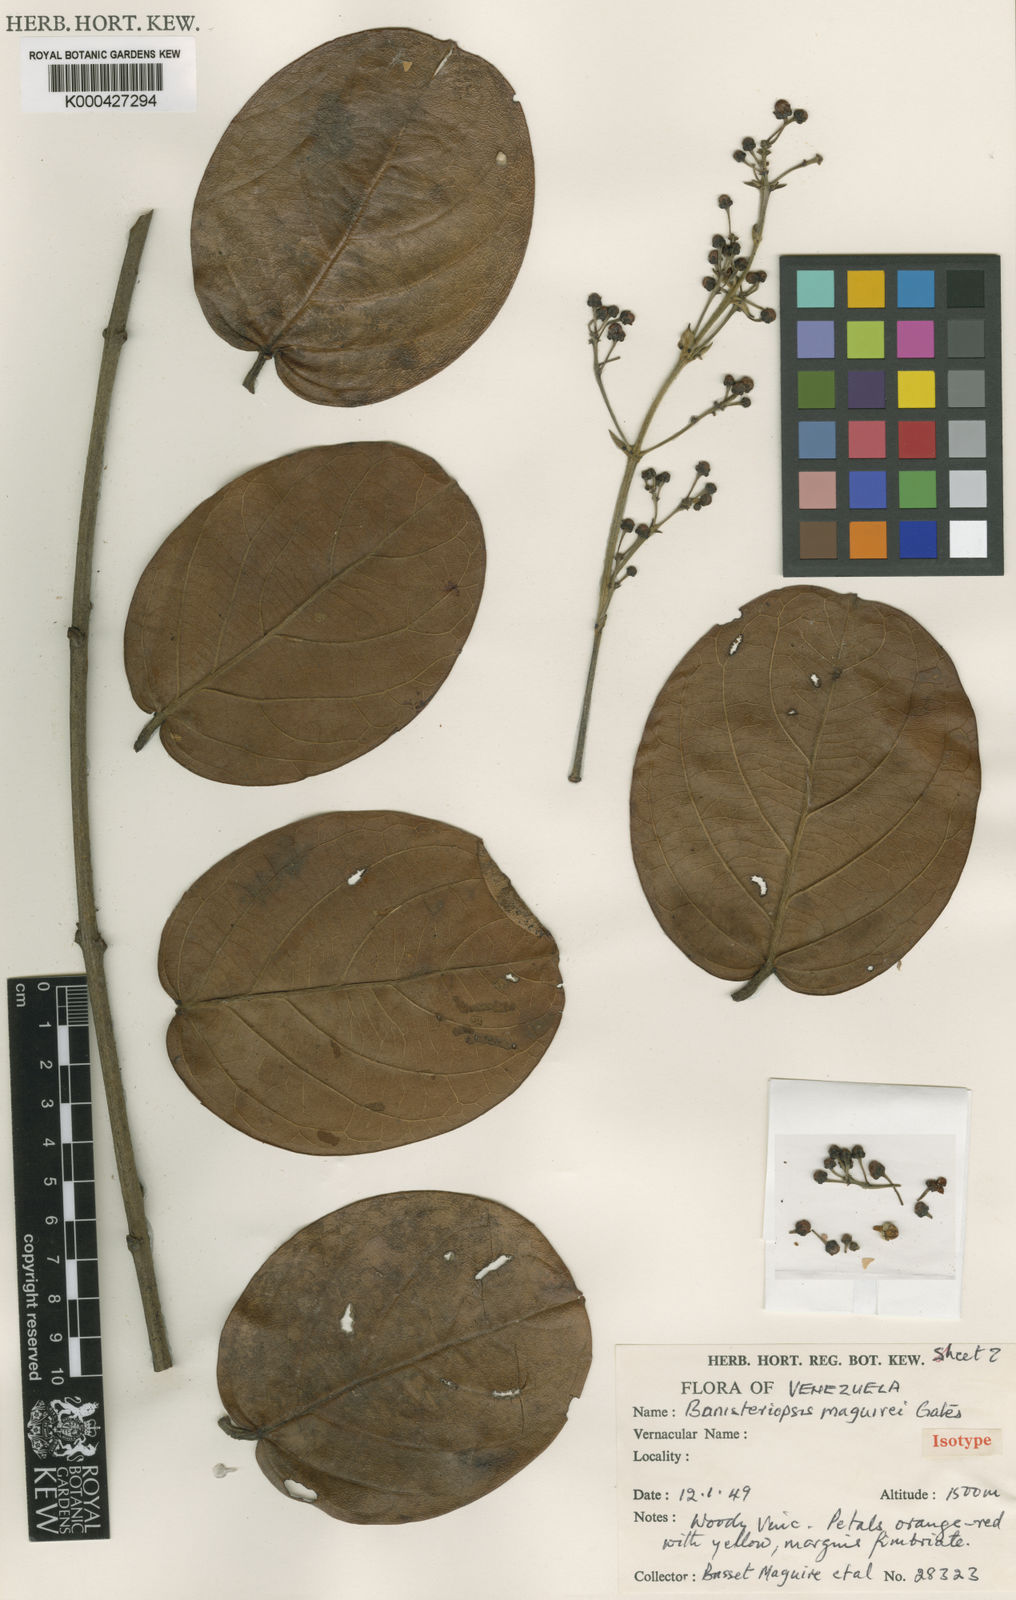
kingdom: Plantae
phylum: Tracheophyta
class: Magnoliopsida
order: Malpighiales
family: Malpighiaceae
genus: Banisteriopsis
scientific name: Banisteriopsis maguirei
